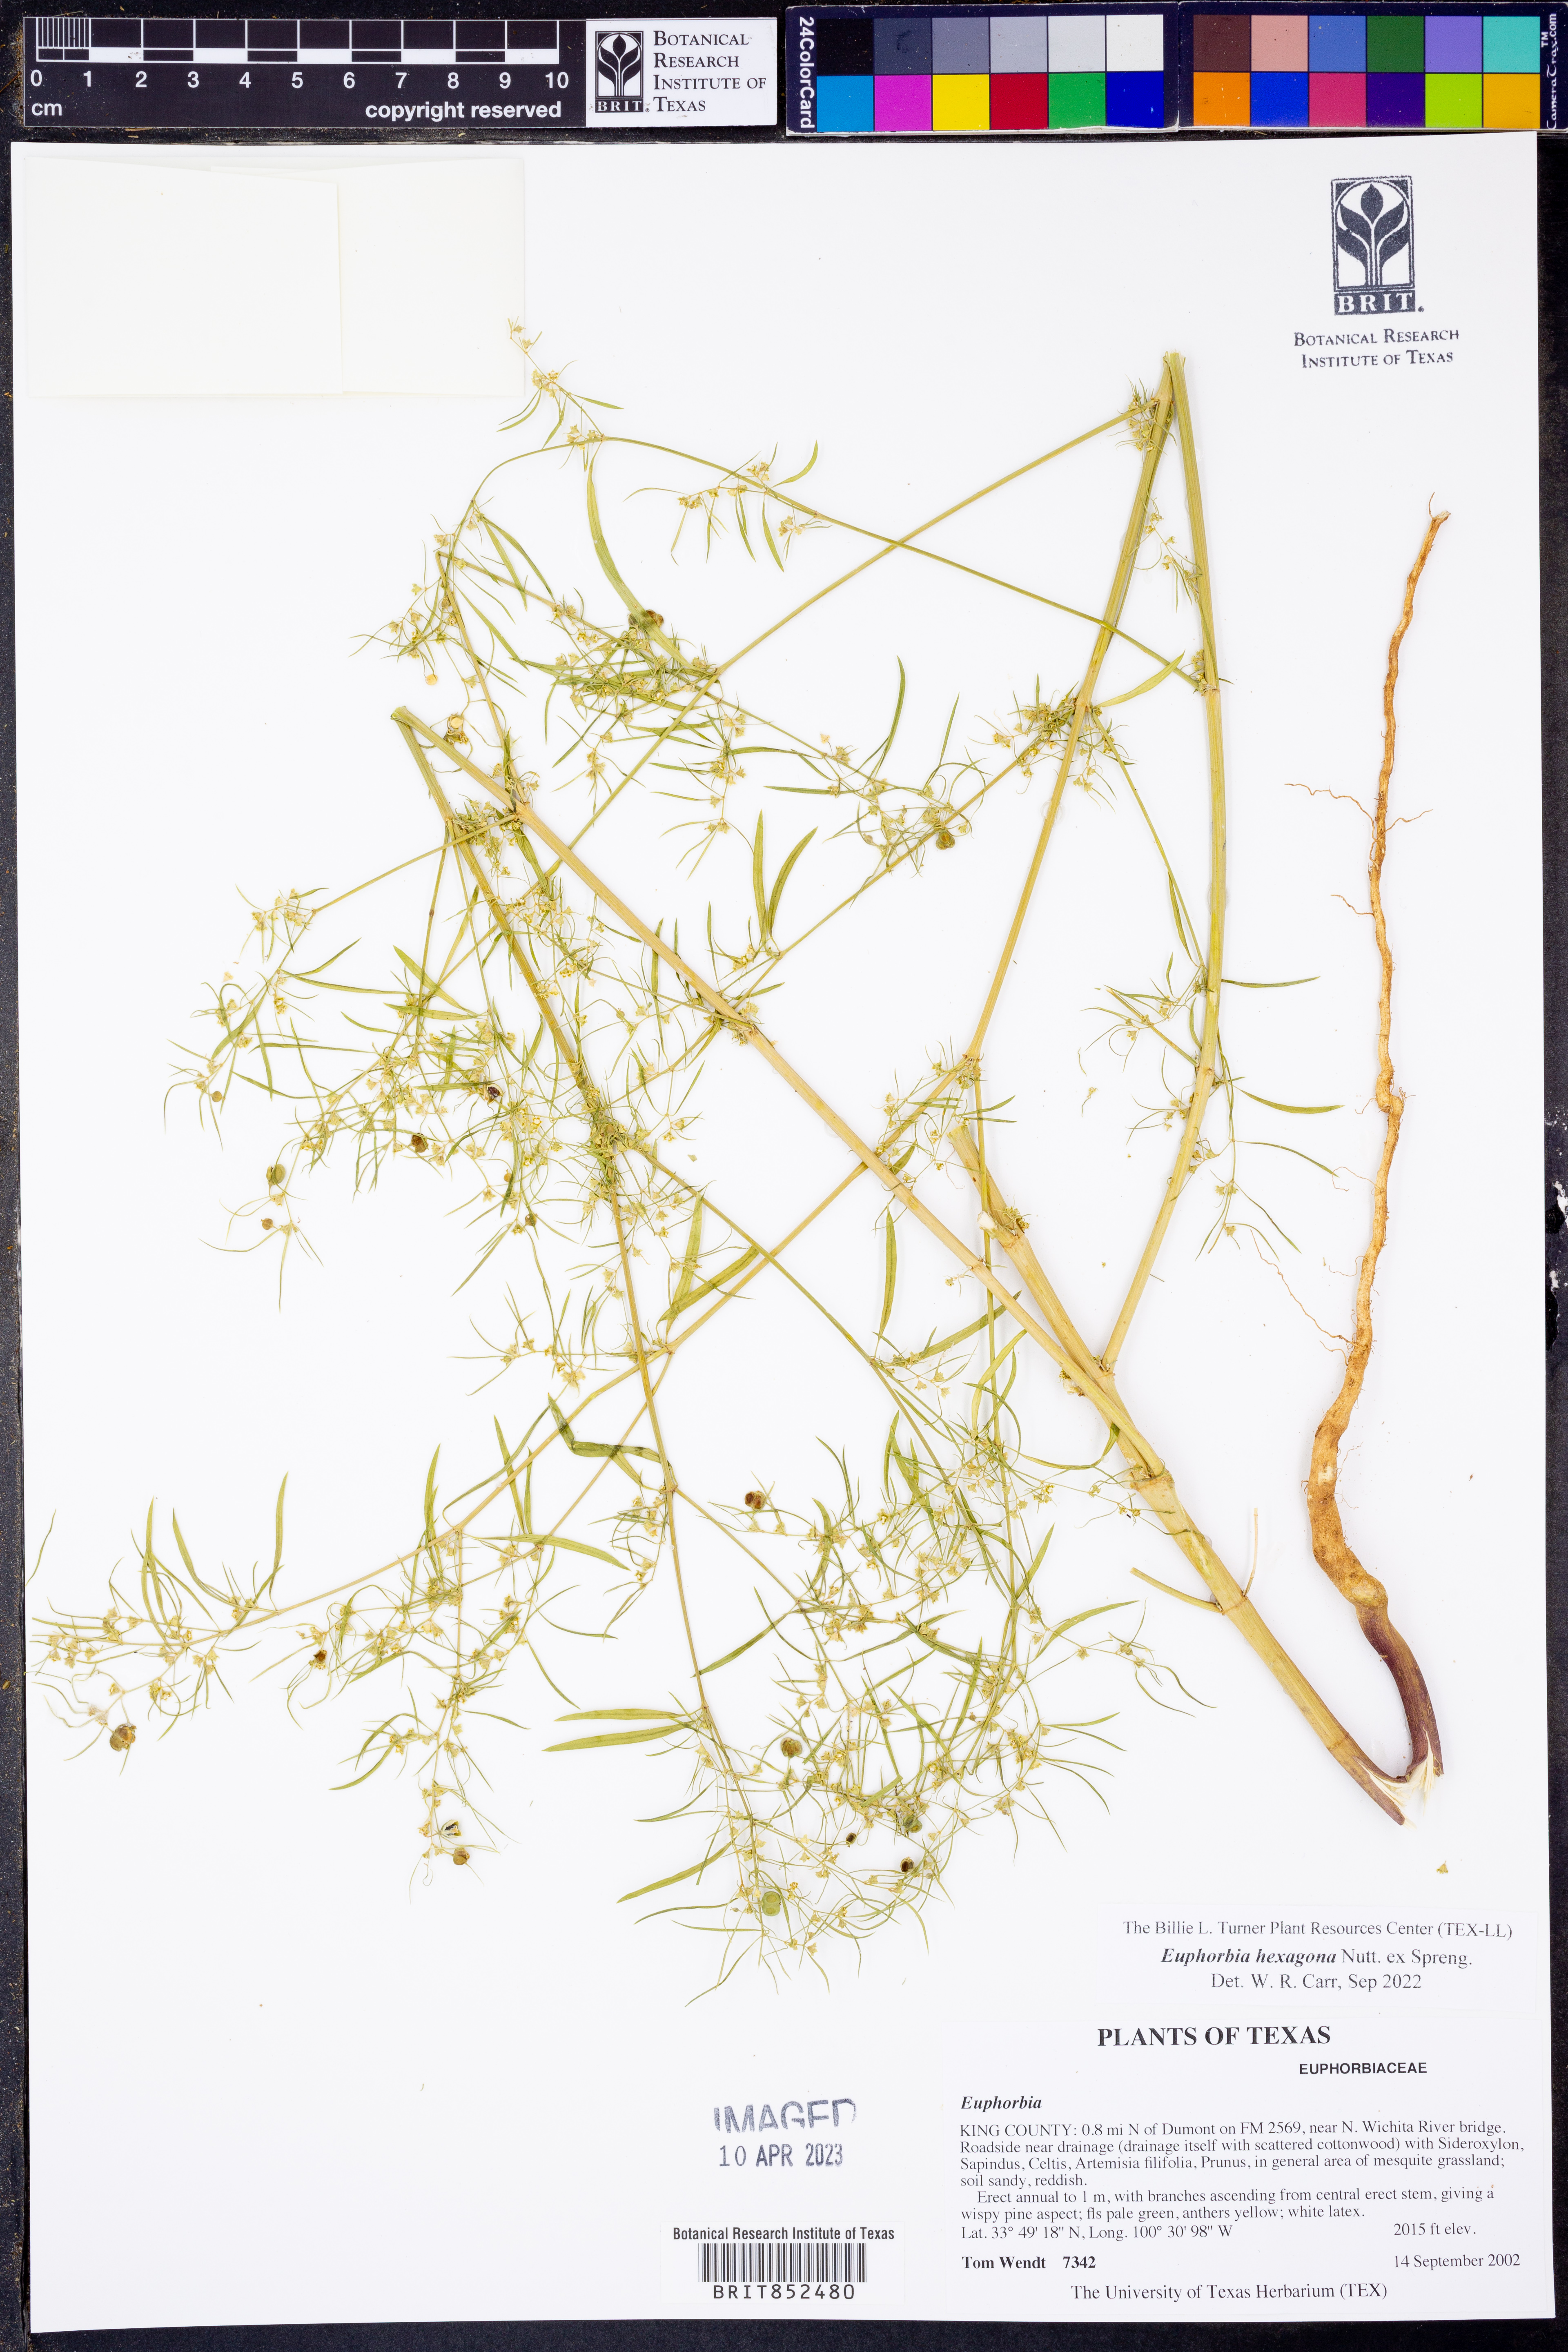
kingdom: Plantae
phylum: Tracheophyta
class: Magnoliopsida
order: Malpighiales
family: Euphorbiaceae
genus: Euphorbia
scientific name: Euphorbia hexagona
